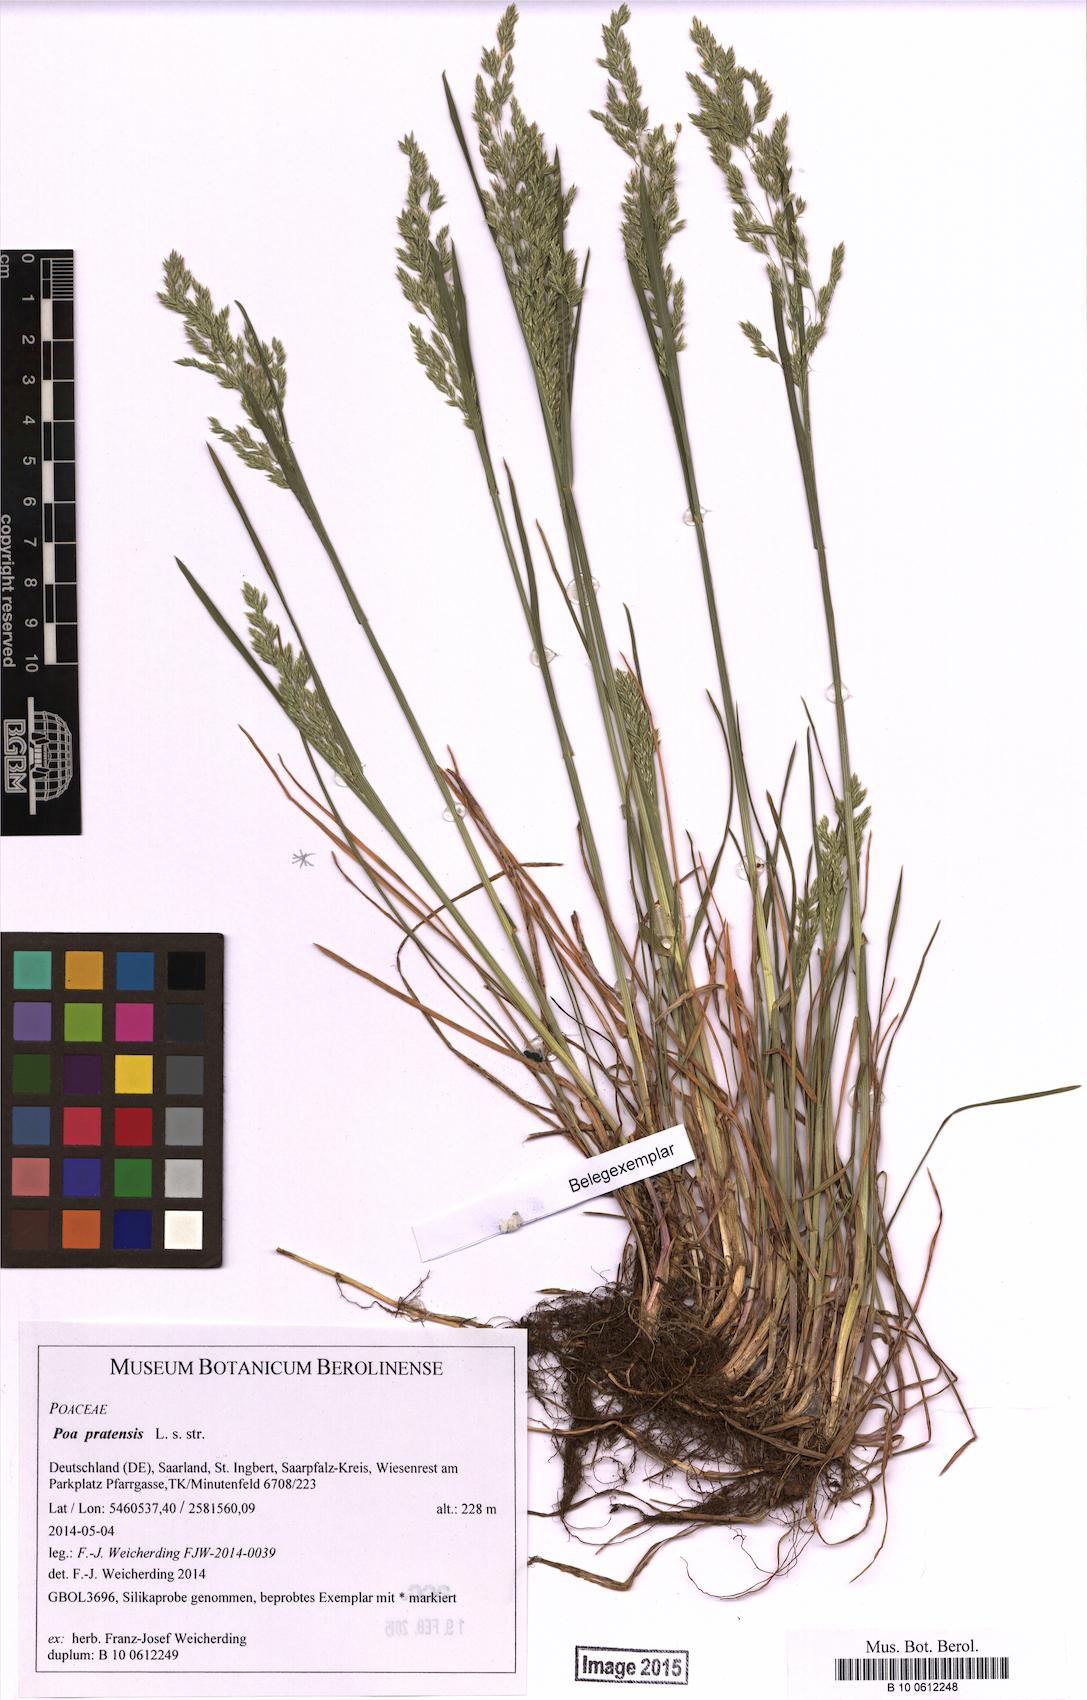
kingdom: Plantae
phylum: Tracheophyta
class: Liliopsida
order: Poales
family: Poaceae
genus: Poa
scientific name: Poa pratensis
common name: Kentucky bluegrass
